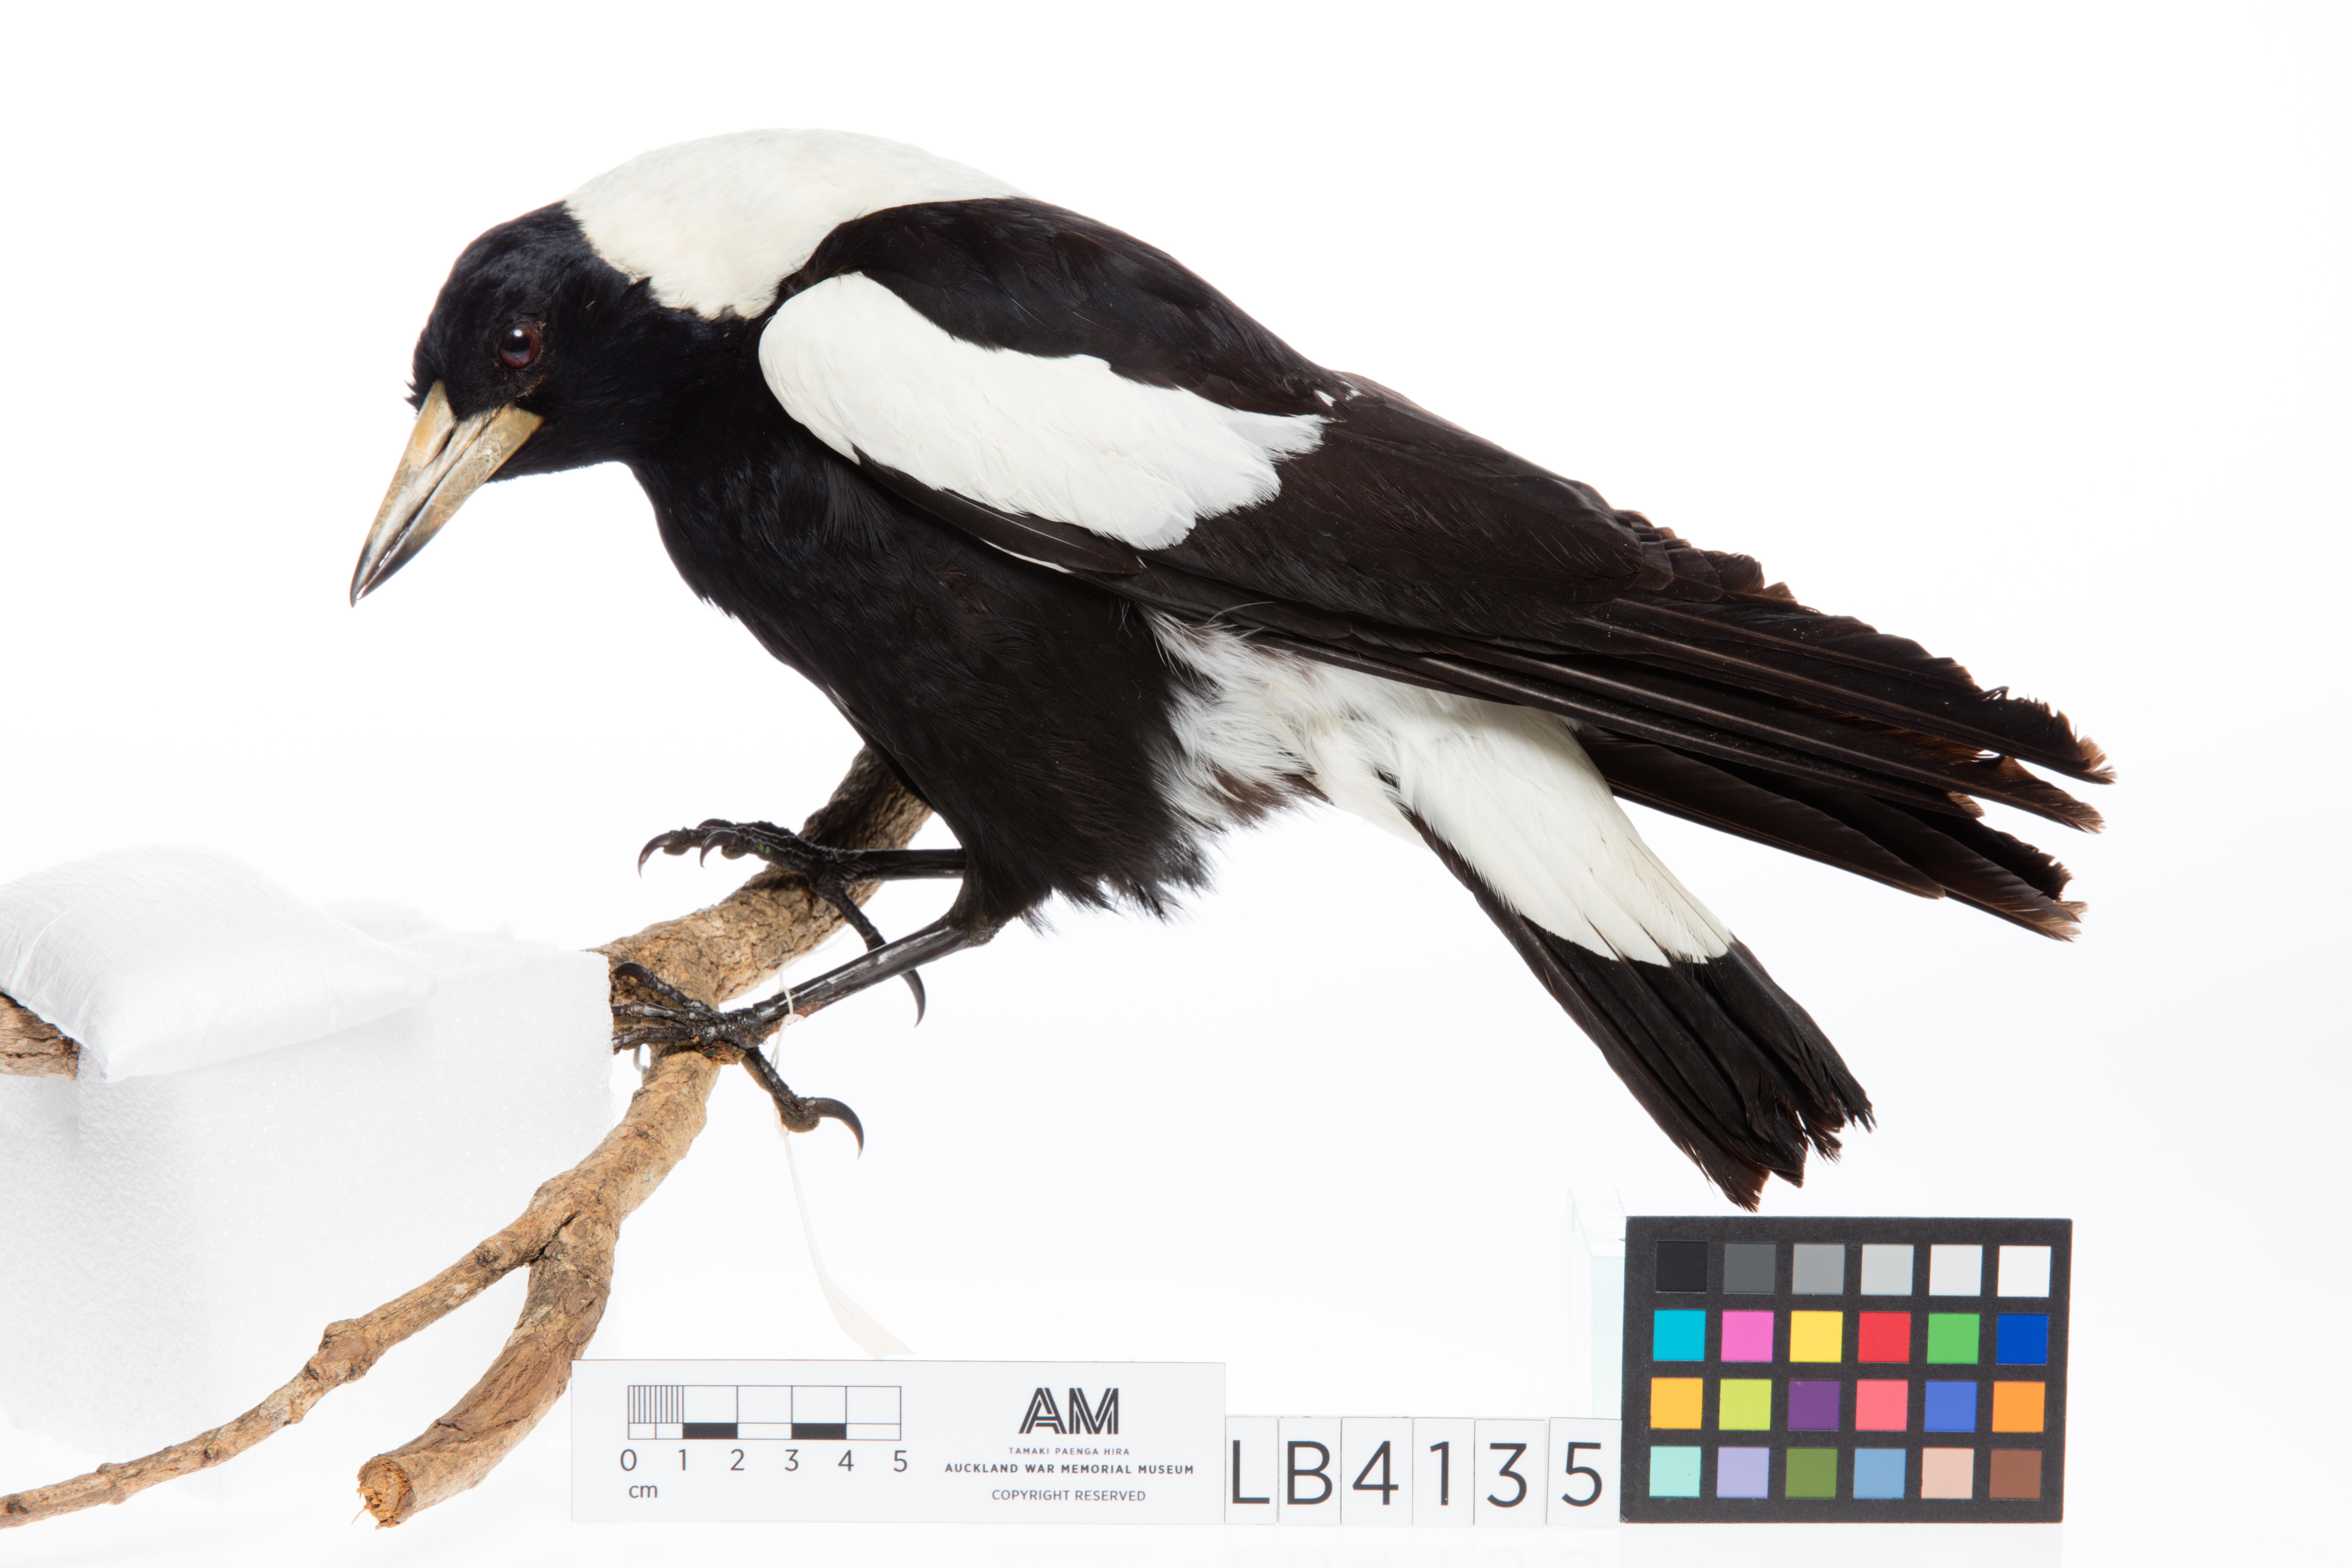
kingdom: Animalia
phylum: Chordata
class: Aves
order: Passeriformes
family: Cracticidae
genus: Gymnorhina
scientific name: Gymnorhina tibicen
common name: Australian magpie
